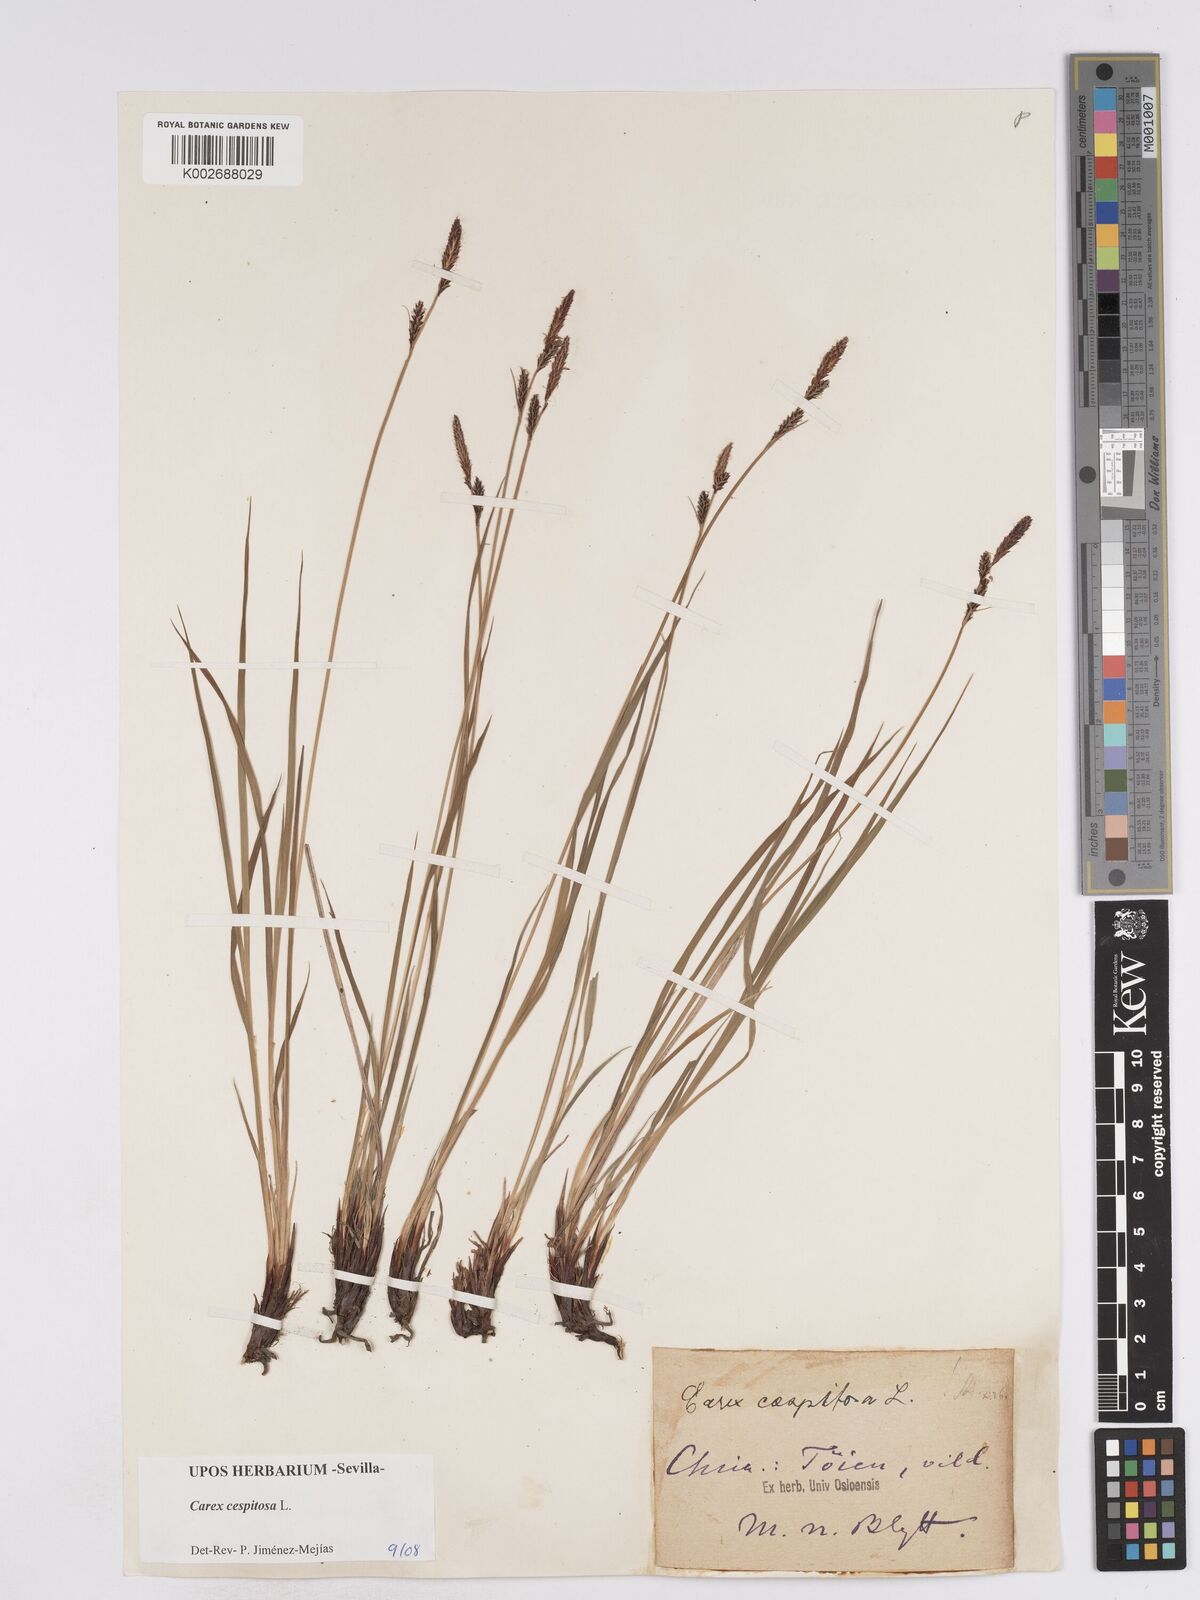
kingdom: Plantae
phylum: Tracheophyta
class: Liliopsida
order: Poales
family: Cyperaceae
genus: Carex
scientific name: Carex nigra
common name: Common sedge
